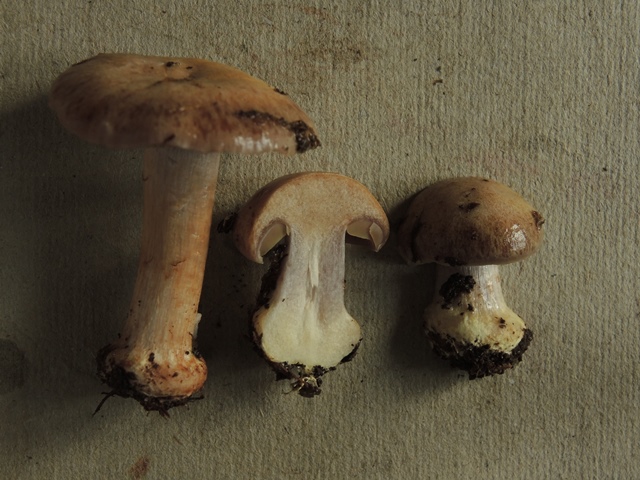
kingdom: Fungi
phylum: Basidiomycota
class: Agaricomycetes
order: Agaricales
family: Cortinariaceae
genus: Thaxterogaster
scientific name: Thaxterogaster scaurus
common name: grønrandet slørhat
